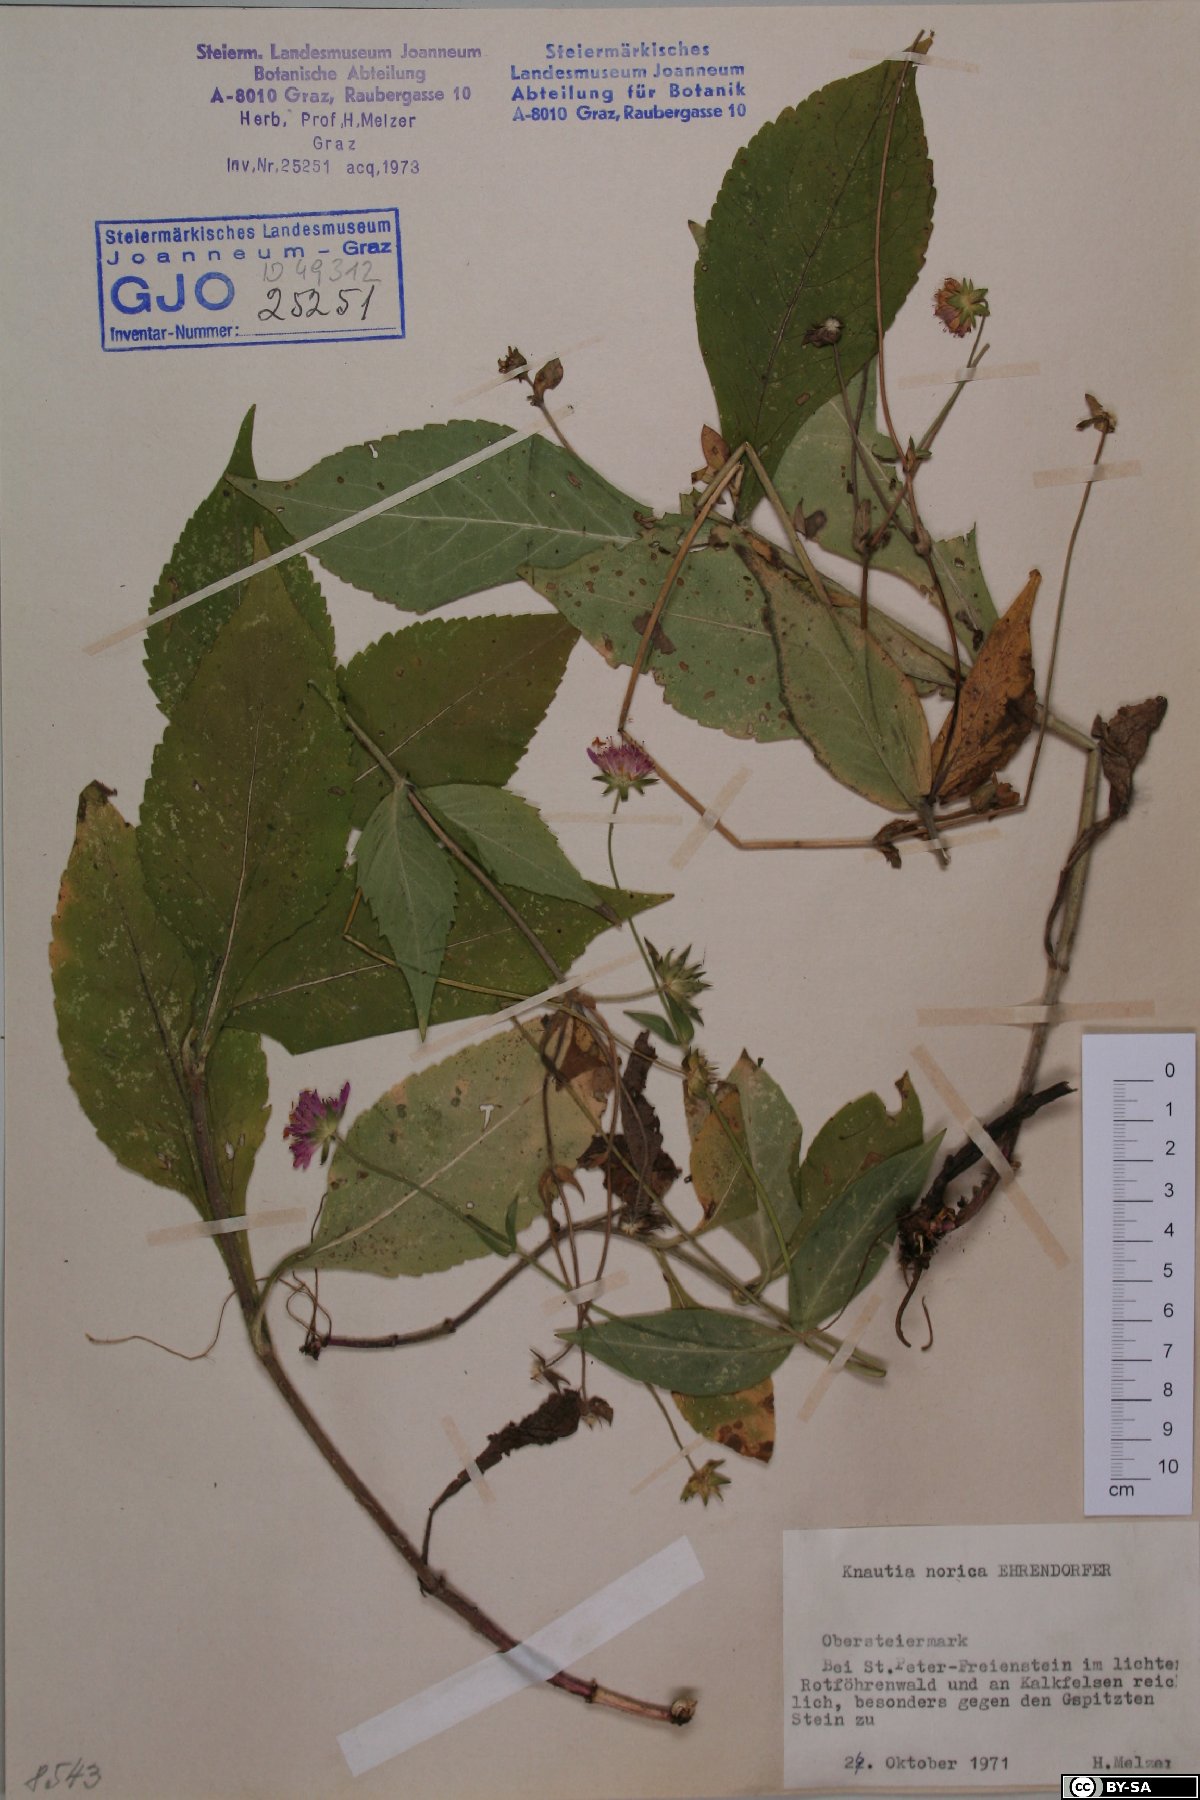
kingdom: Plantae
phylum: Tracheophyta
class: Magnoliopsida
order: Dipsacales
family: Caprifoliaceae
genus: Knautia
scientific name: Knautia norica
